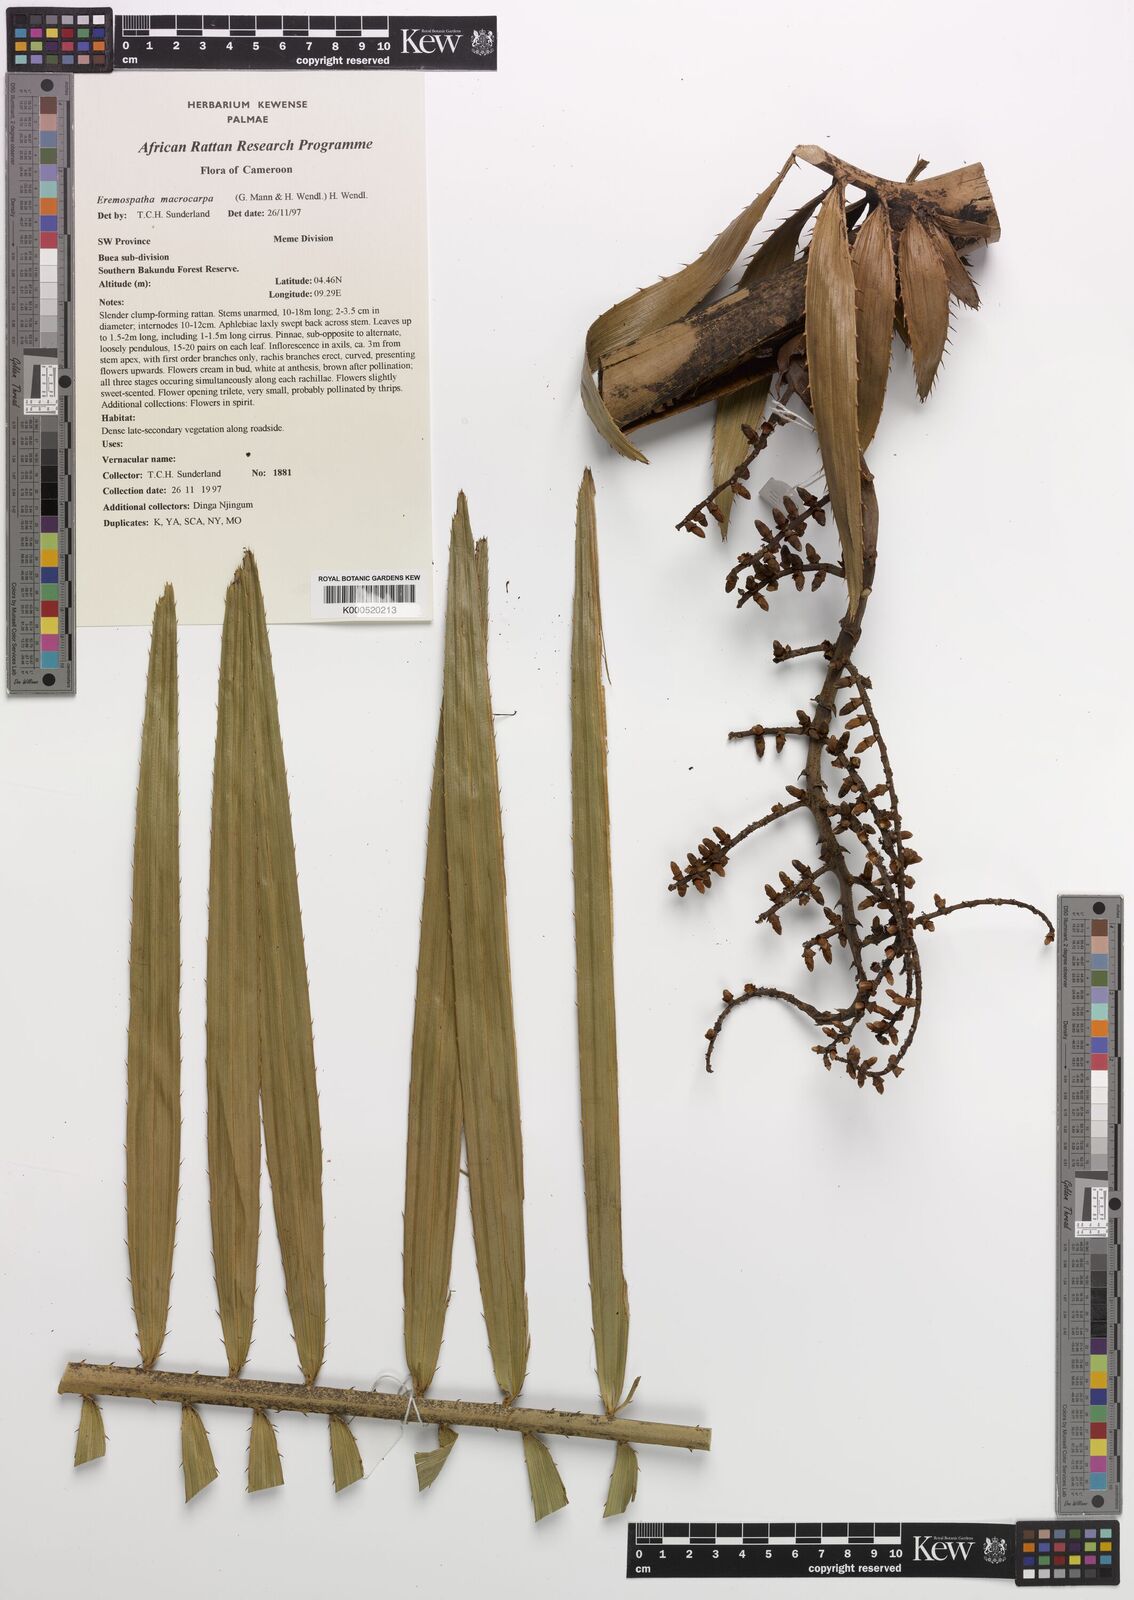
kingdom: Plantae
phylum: Tracheophyta
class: Liliopsida
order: Arecales
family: Arecaceae
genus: Eremospatha
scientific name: Eremospatha
